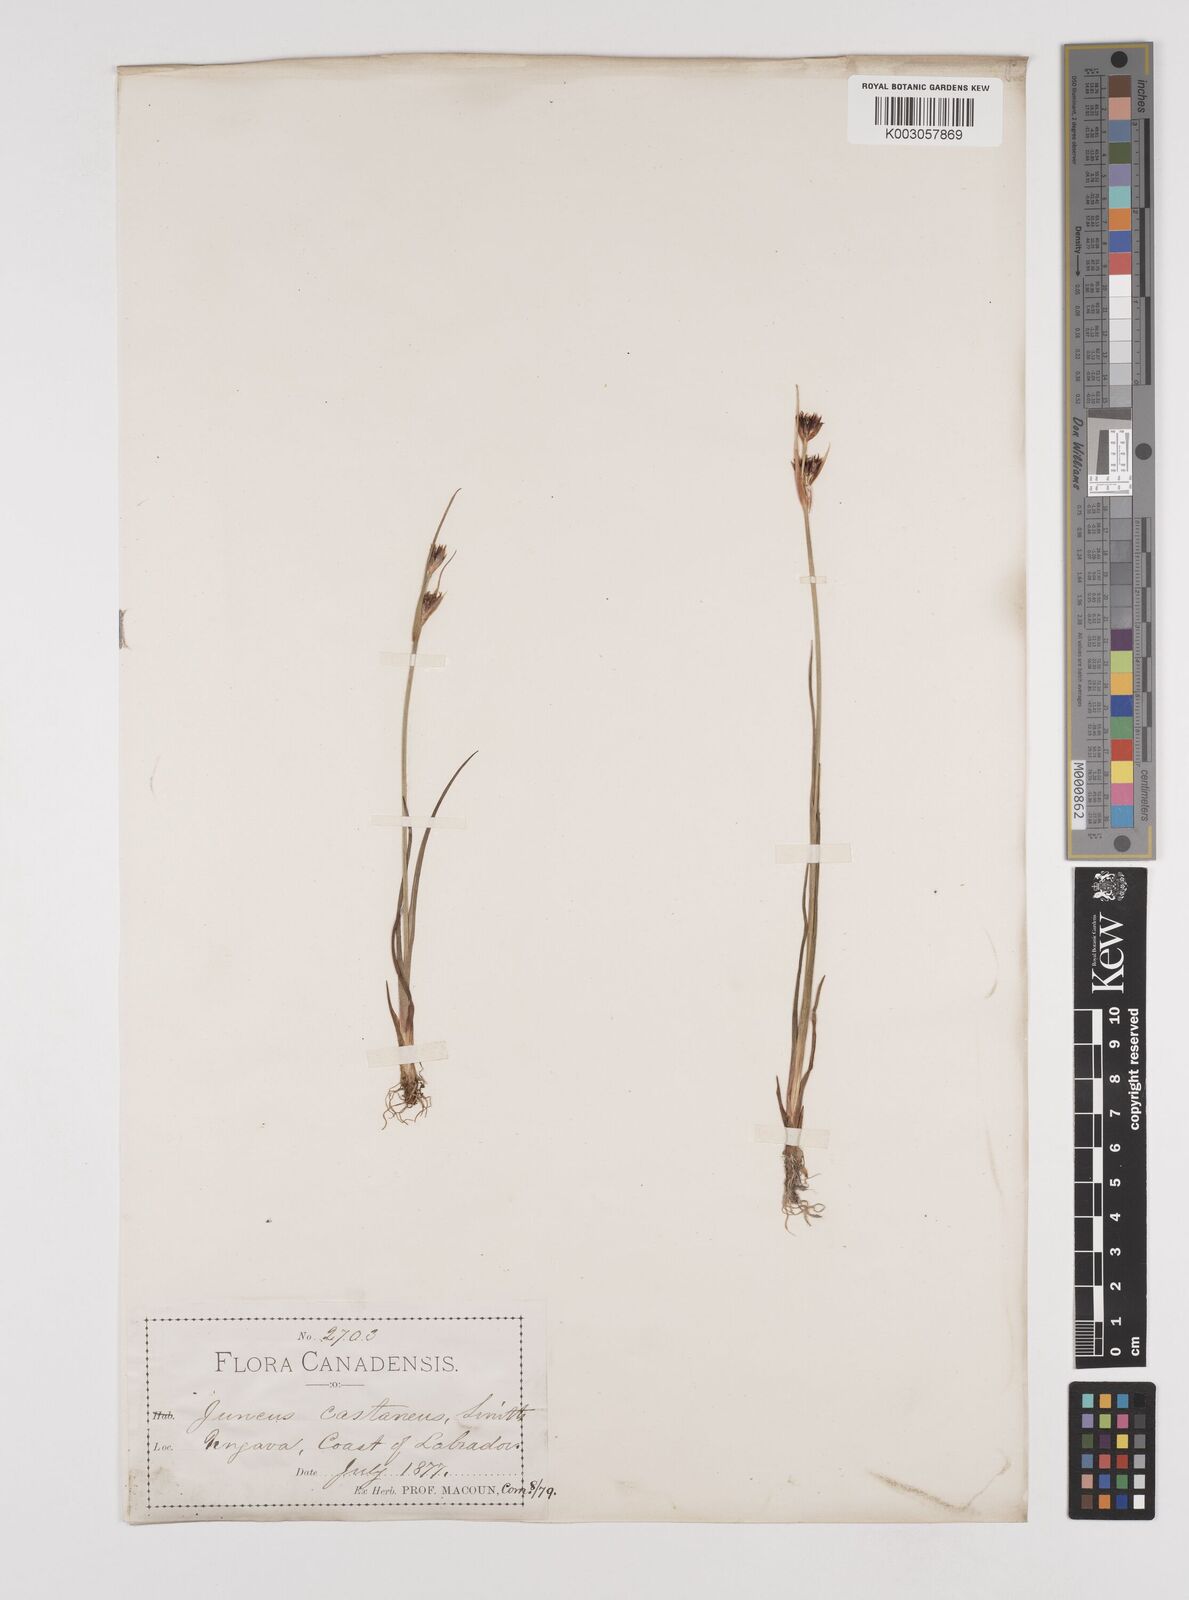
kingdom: Plantae
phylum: Tracheophyta
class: Liliopsida
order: Poales
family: Juncaceae
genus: Juncus
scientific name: Juncus castaneus
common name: Chestnut rush
